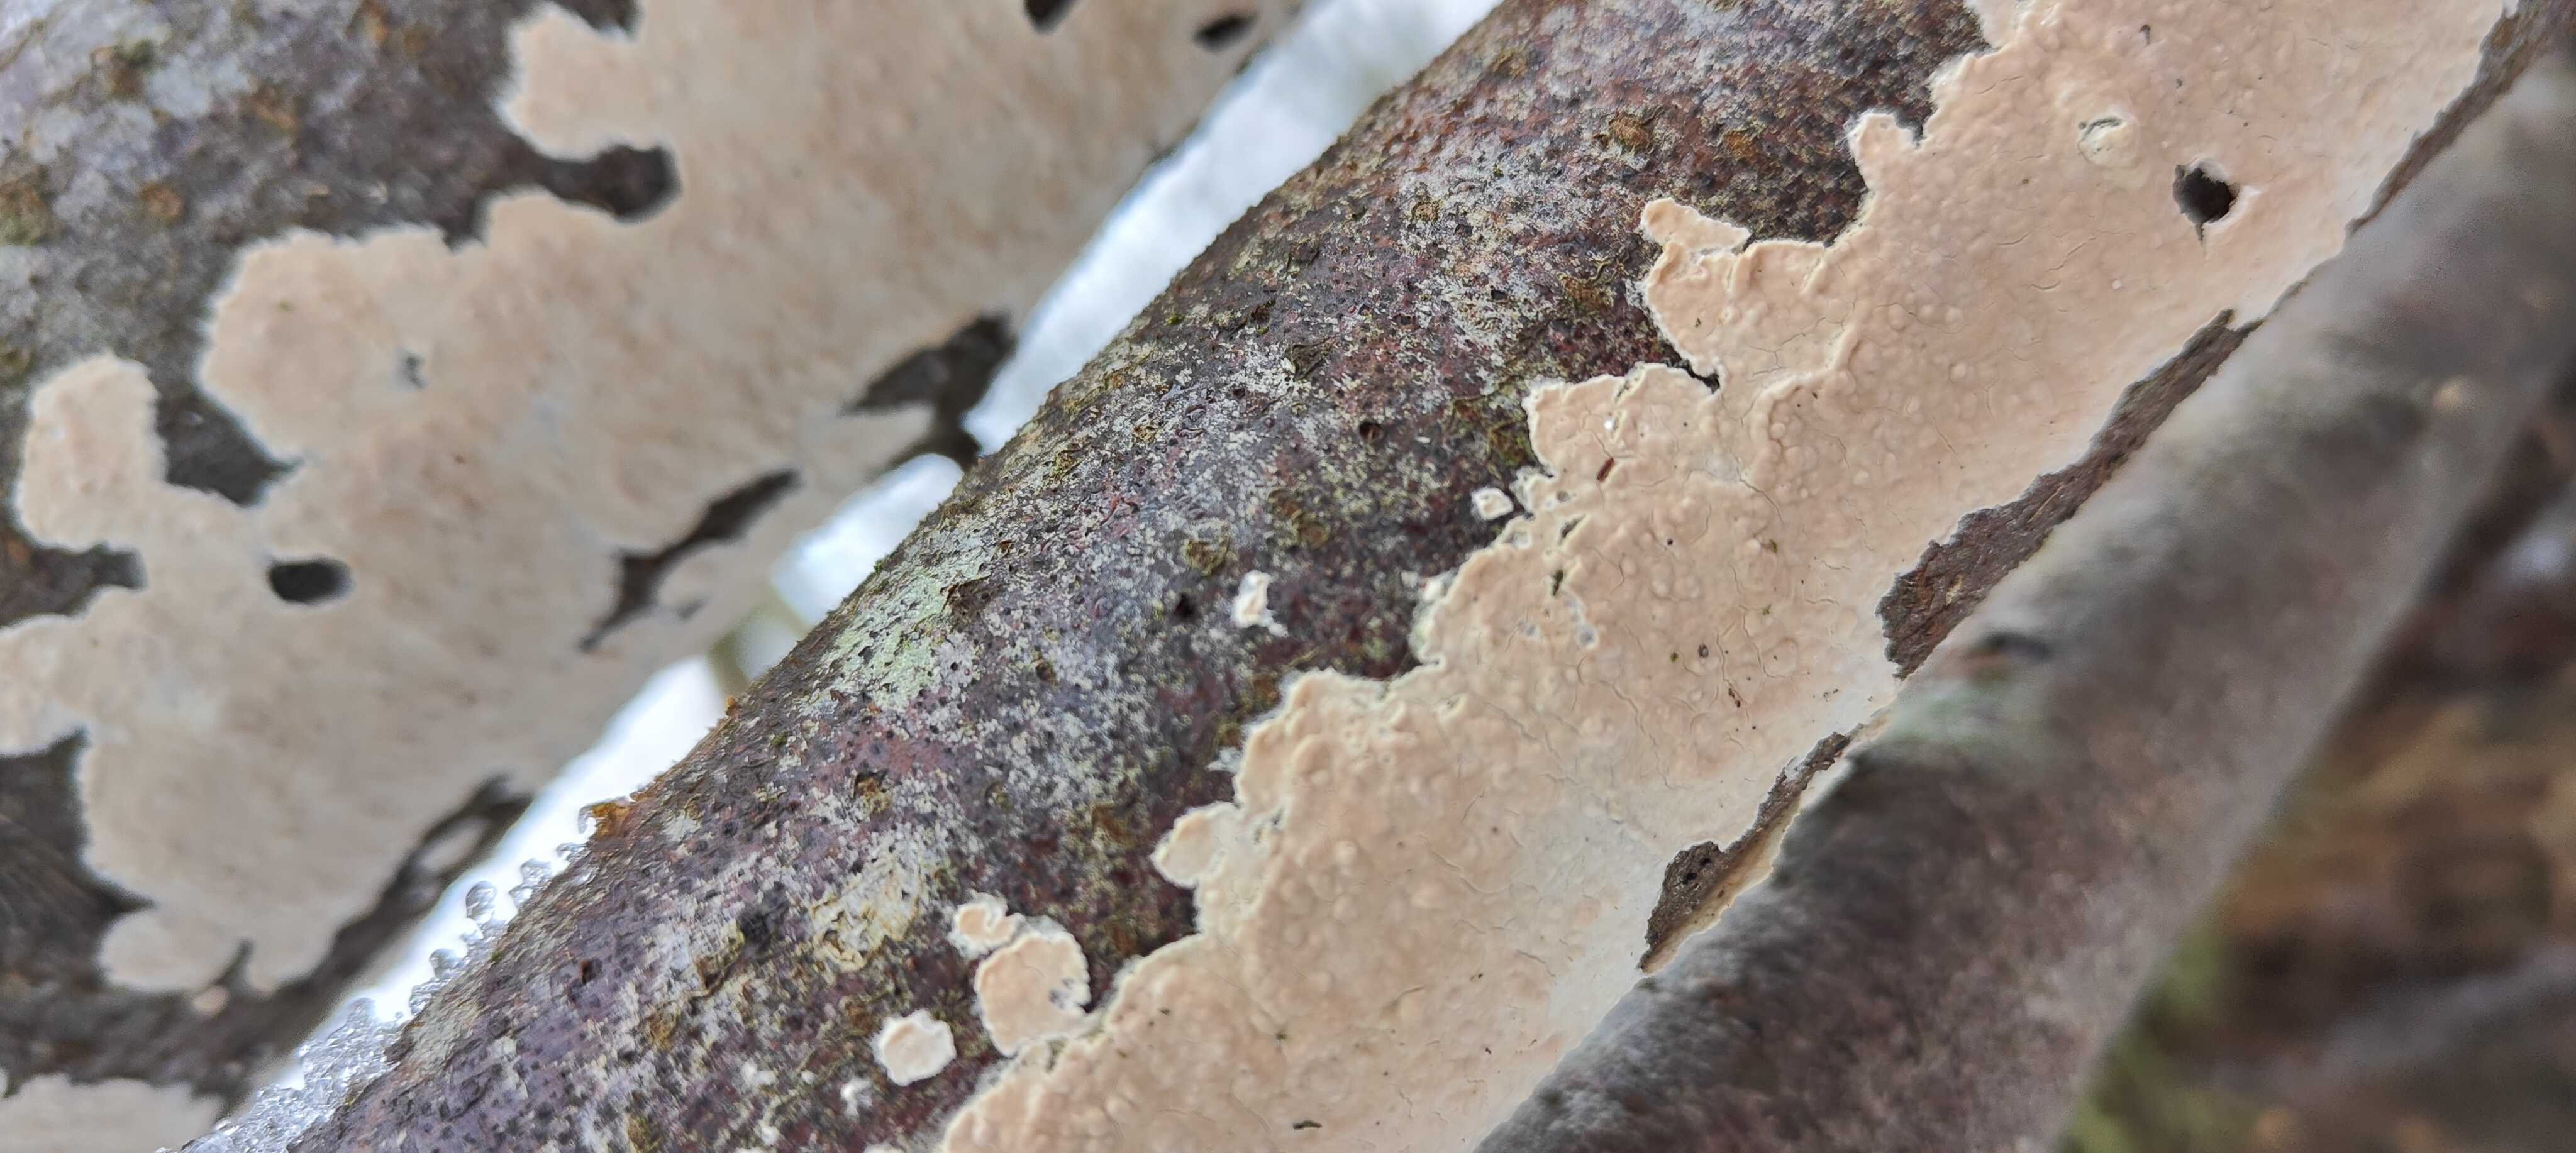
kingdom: Fungi
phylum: Basidiomycota
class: Agaricomycetes
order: Agaricales
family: Physalacriaceae
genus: Cylindrobasidium
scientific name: Cylindrobasidium evolvens
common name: sprækkehinde
